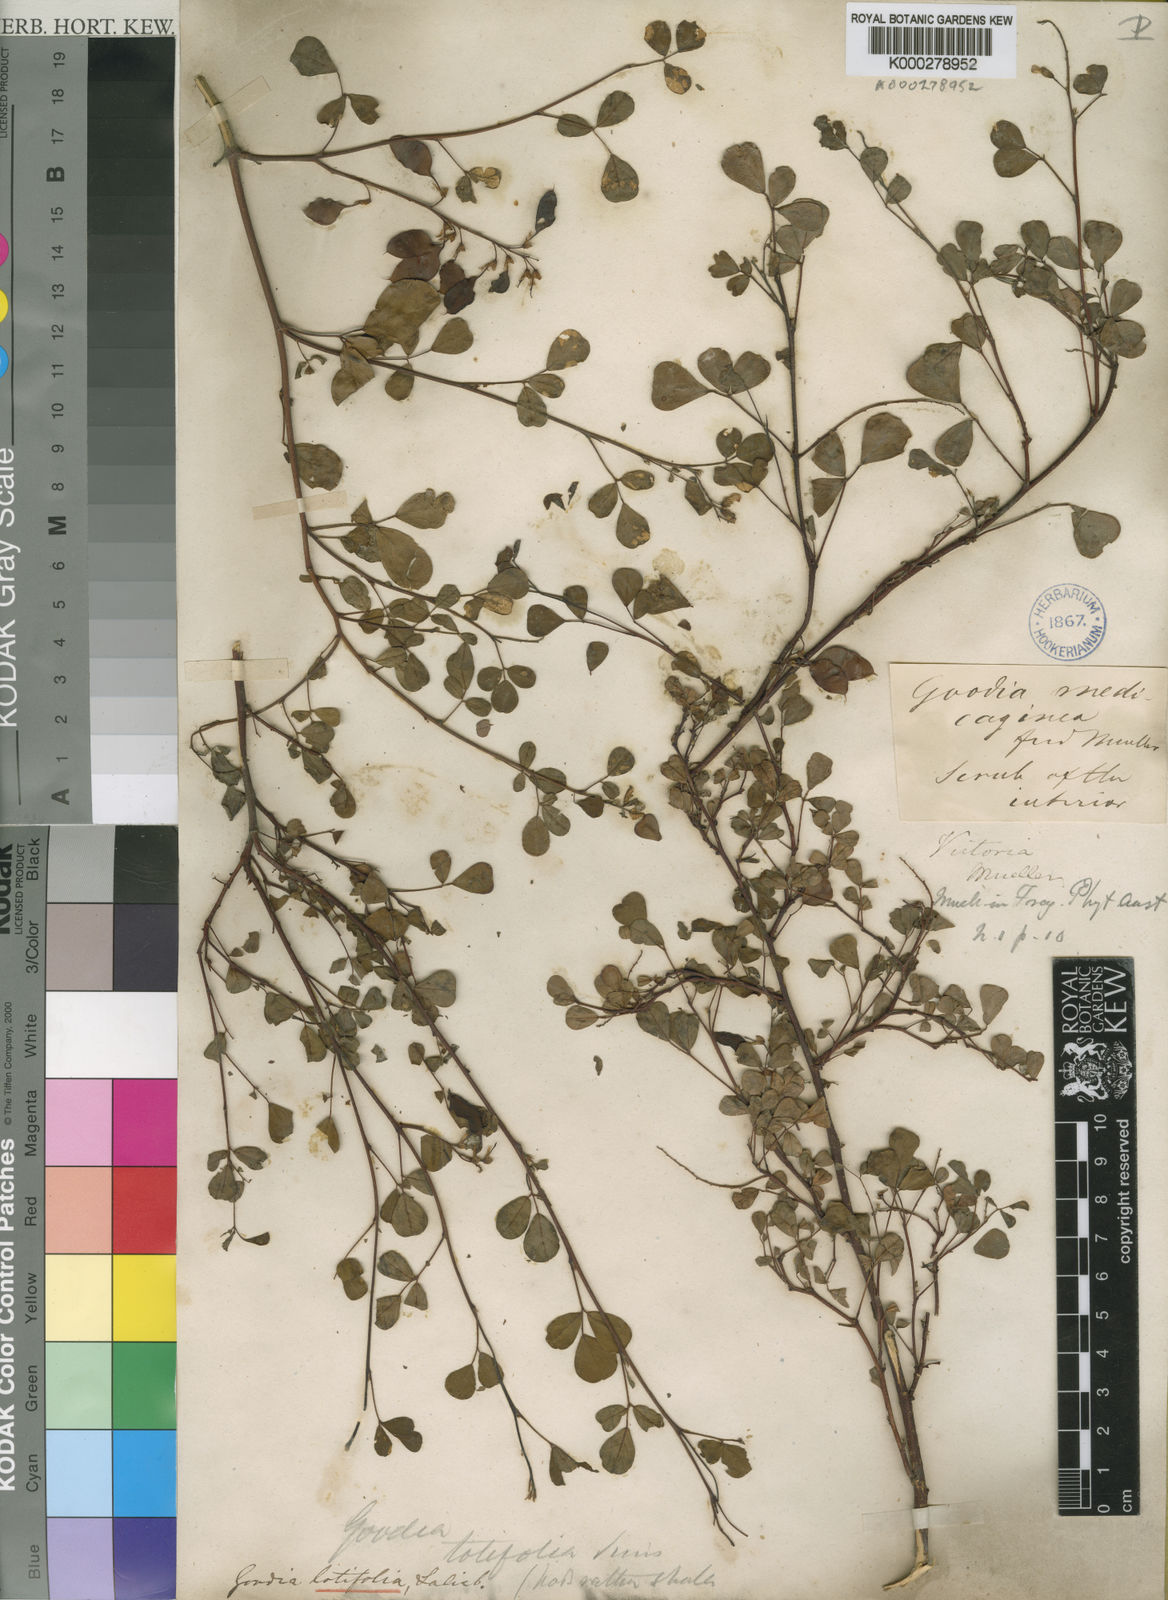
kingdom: Plantae
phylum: Tracheophyta
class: Magnoliopsida
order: Fabales
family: Fabaceae
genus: Goodia
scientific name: Goodia lotifolia
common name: Cloverleaf-poison
